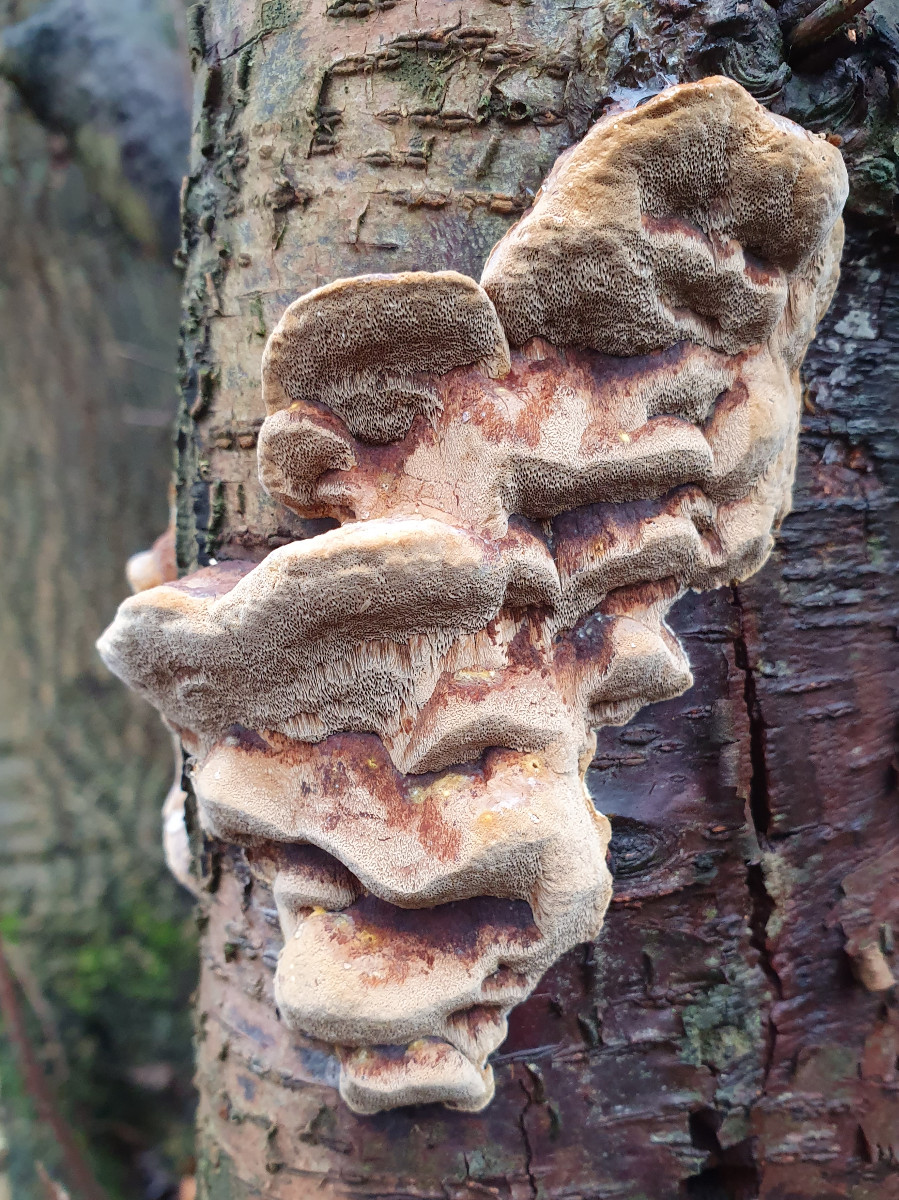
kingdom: Fungi
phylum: Basidiomycota
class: Agaricomycetes
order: Hymenochaetales
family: Hymenochaetaceae
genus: Phellinus
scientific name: Phellinus pomaceus
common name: blomme-ildporesvamp
